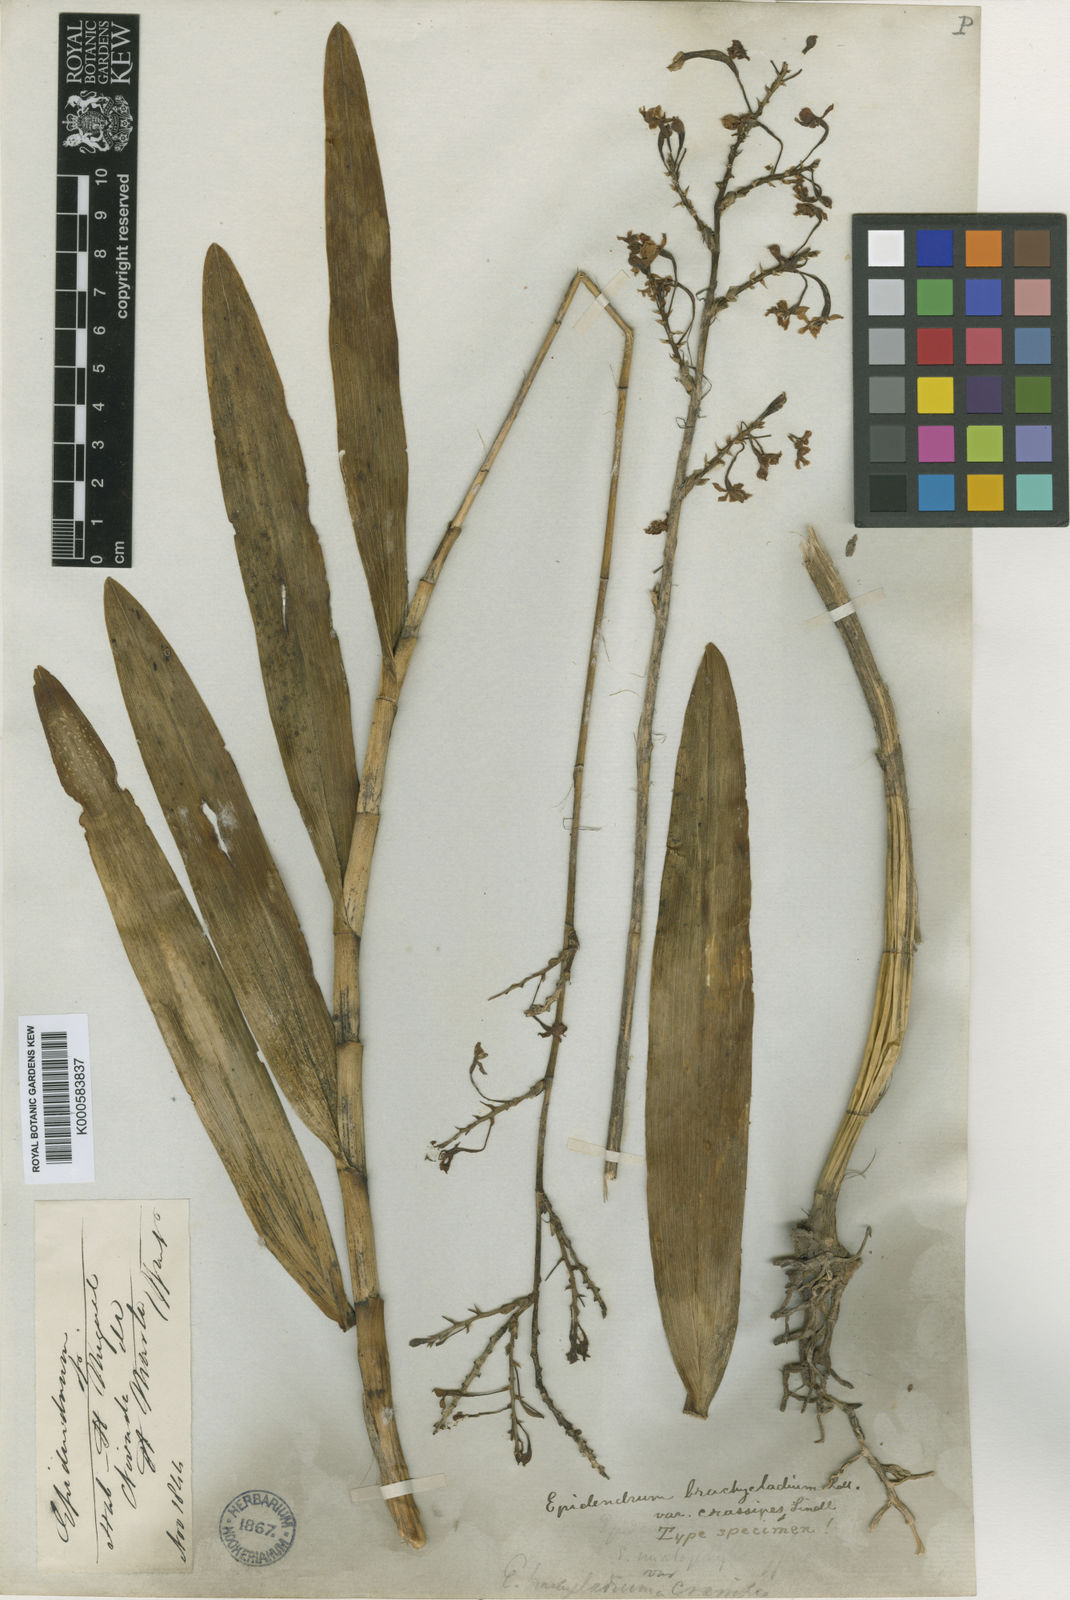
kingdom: Plantae
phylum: Tracheophyta
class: Liliopsida
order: Asparagales
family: Orchidaceae
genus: Epidendrum
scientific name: Epidendrum blepharistes
